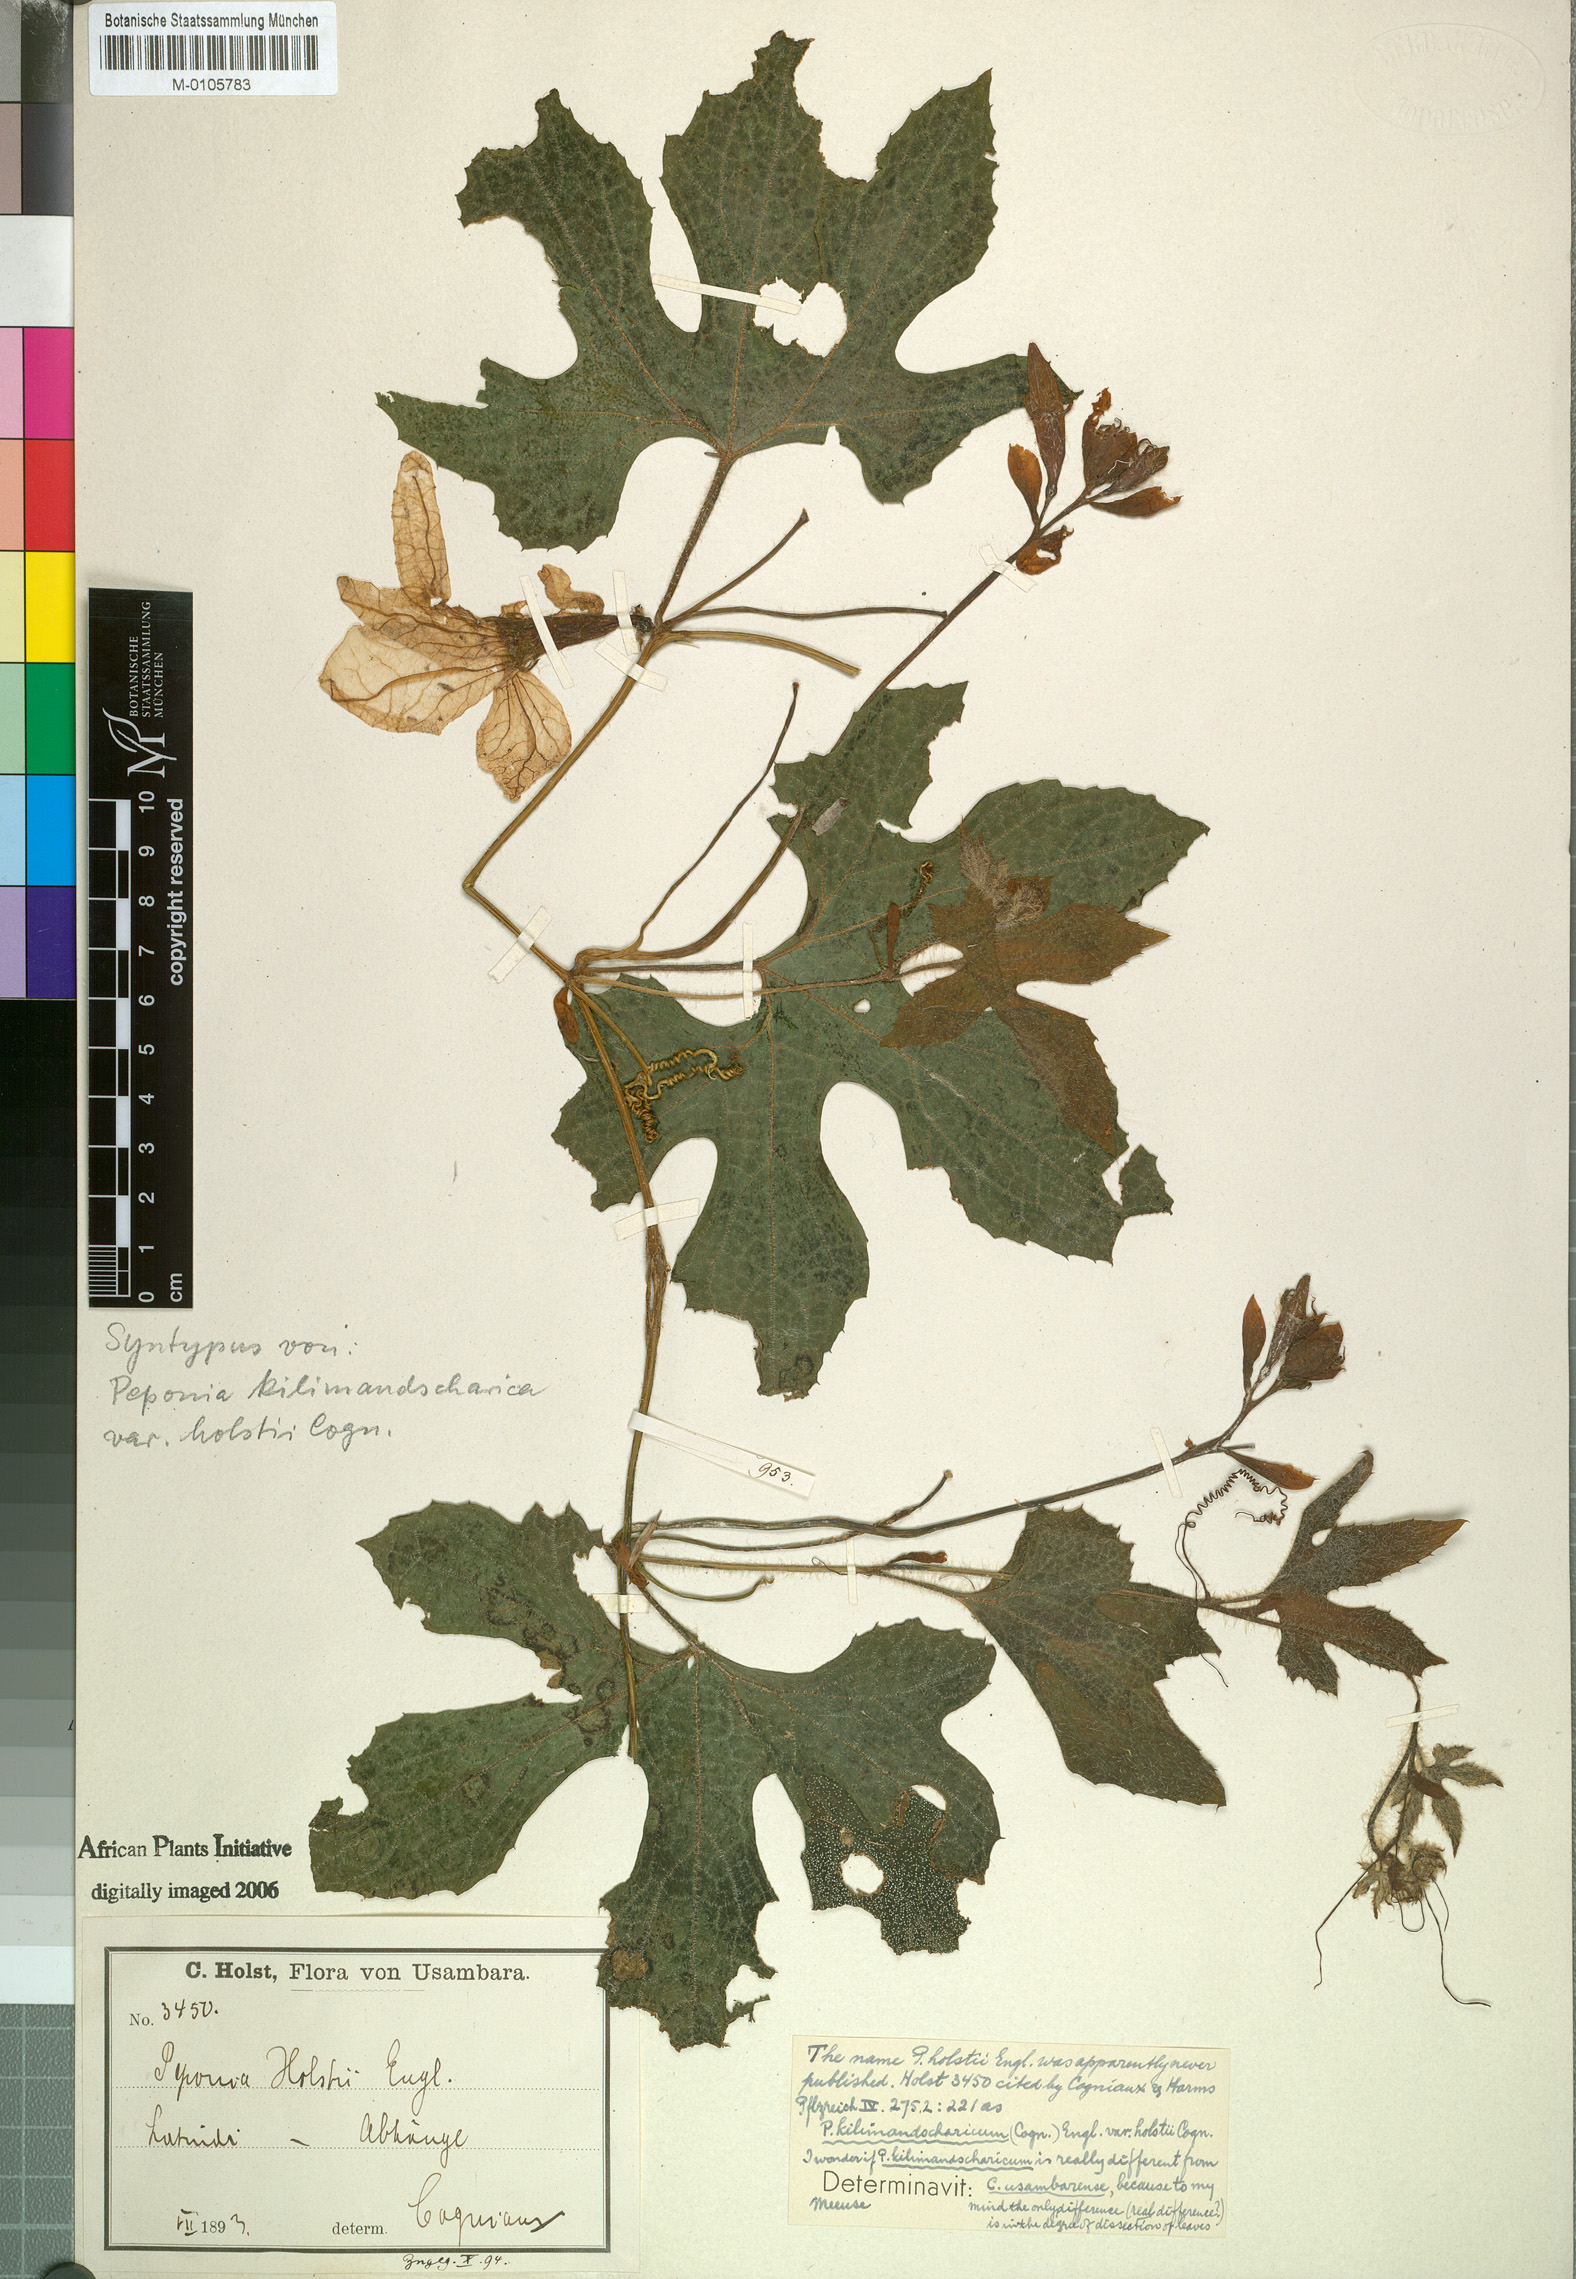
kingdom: Plantae
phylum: Tracheophyta
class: Magnoliopsida
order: Cucurbitales
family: Cucurbitaceae
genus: Peponium
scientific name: Peponium vogelii
